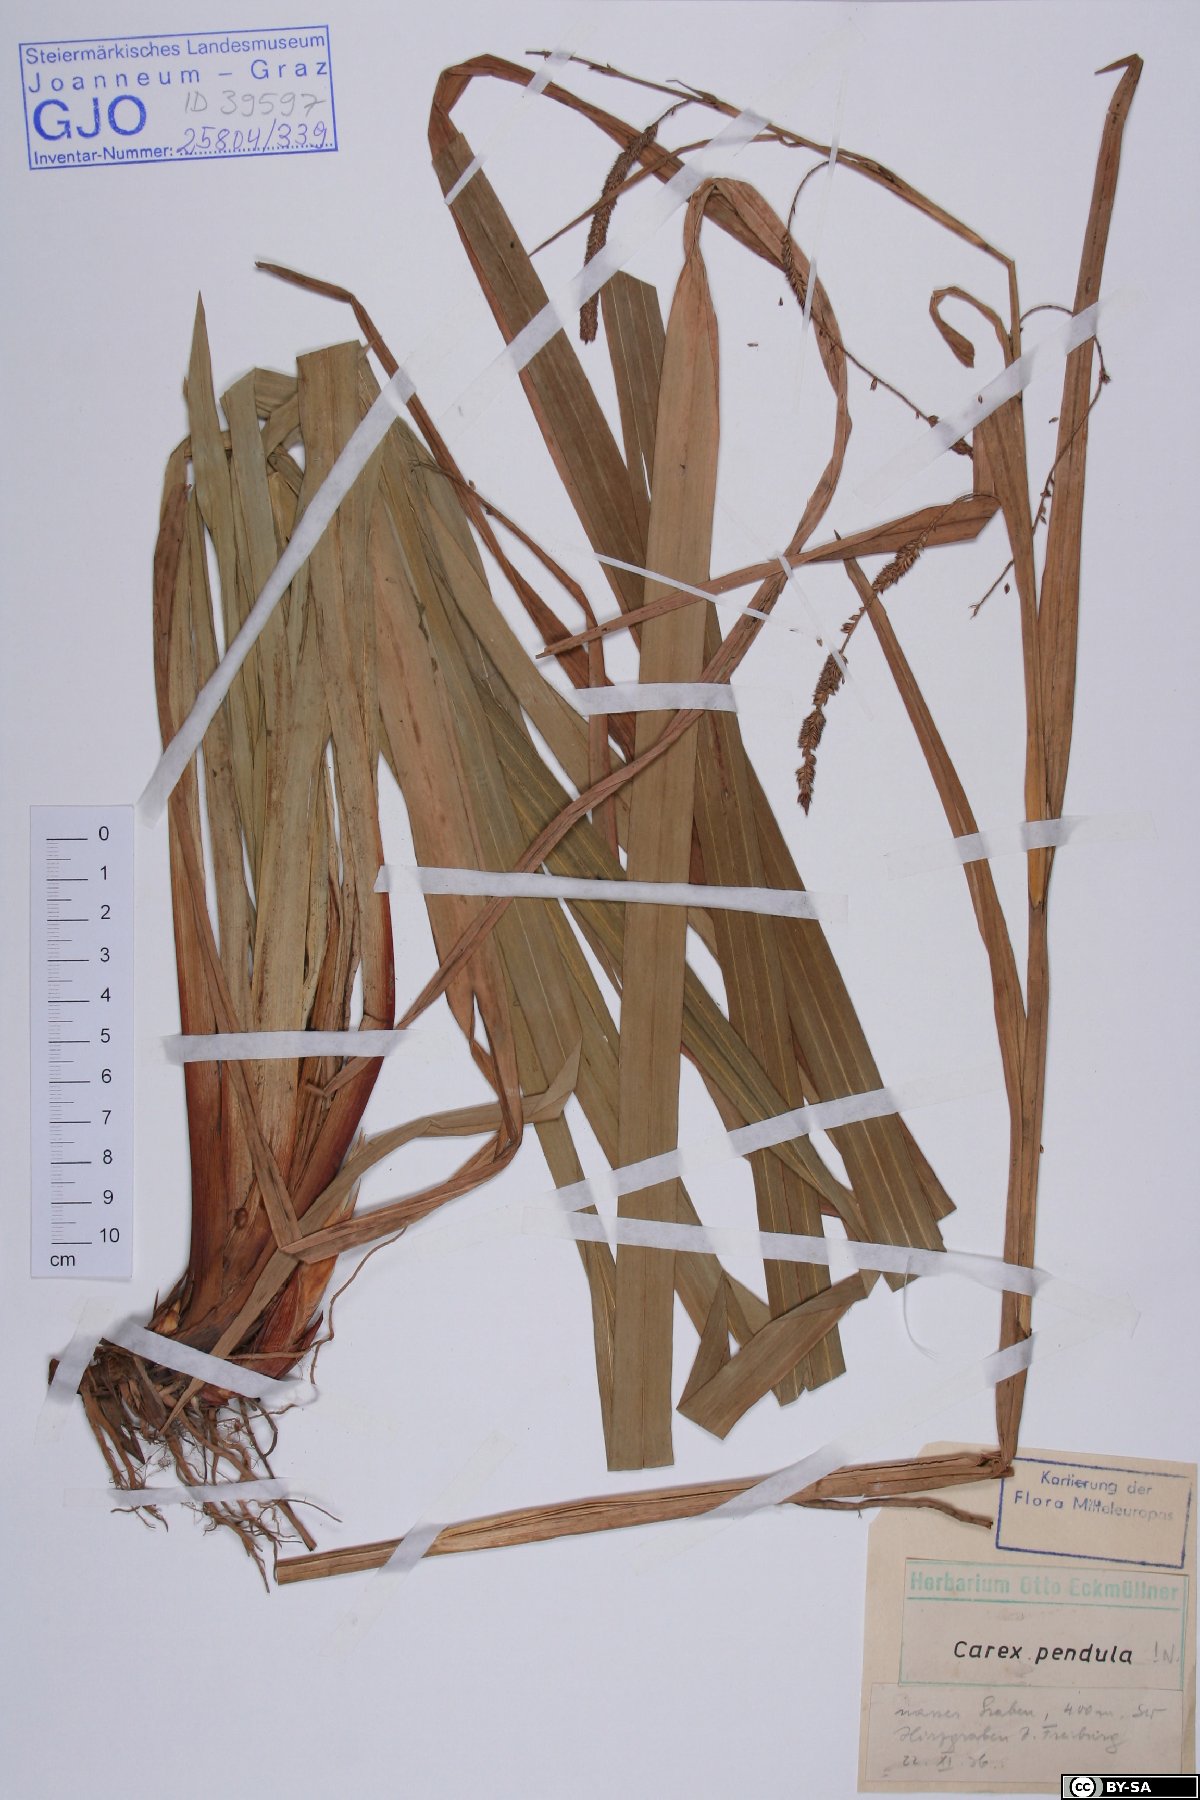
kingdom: Plantae
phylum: Tracheophyta
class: Liliopsida
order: Poales
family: Cyperaceae
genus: Carex
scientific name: Carex pendula
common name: Pendulous sedge
